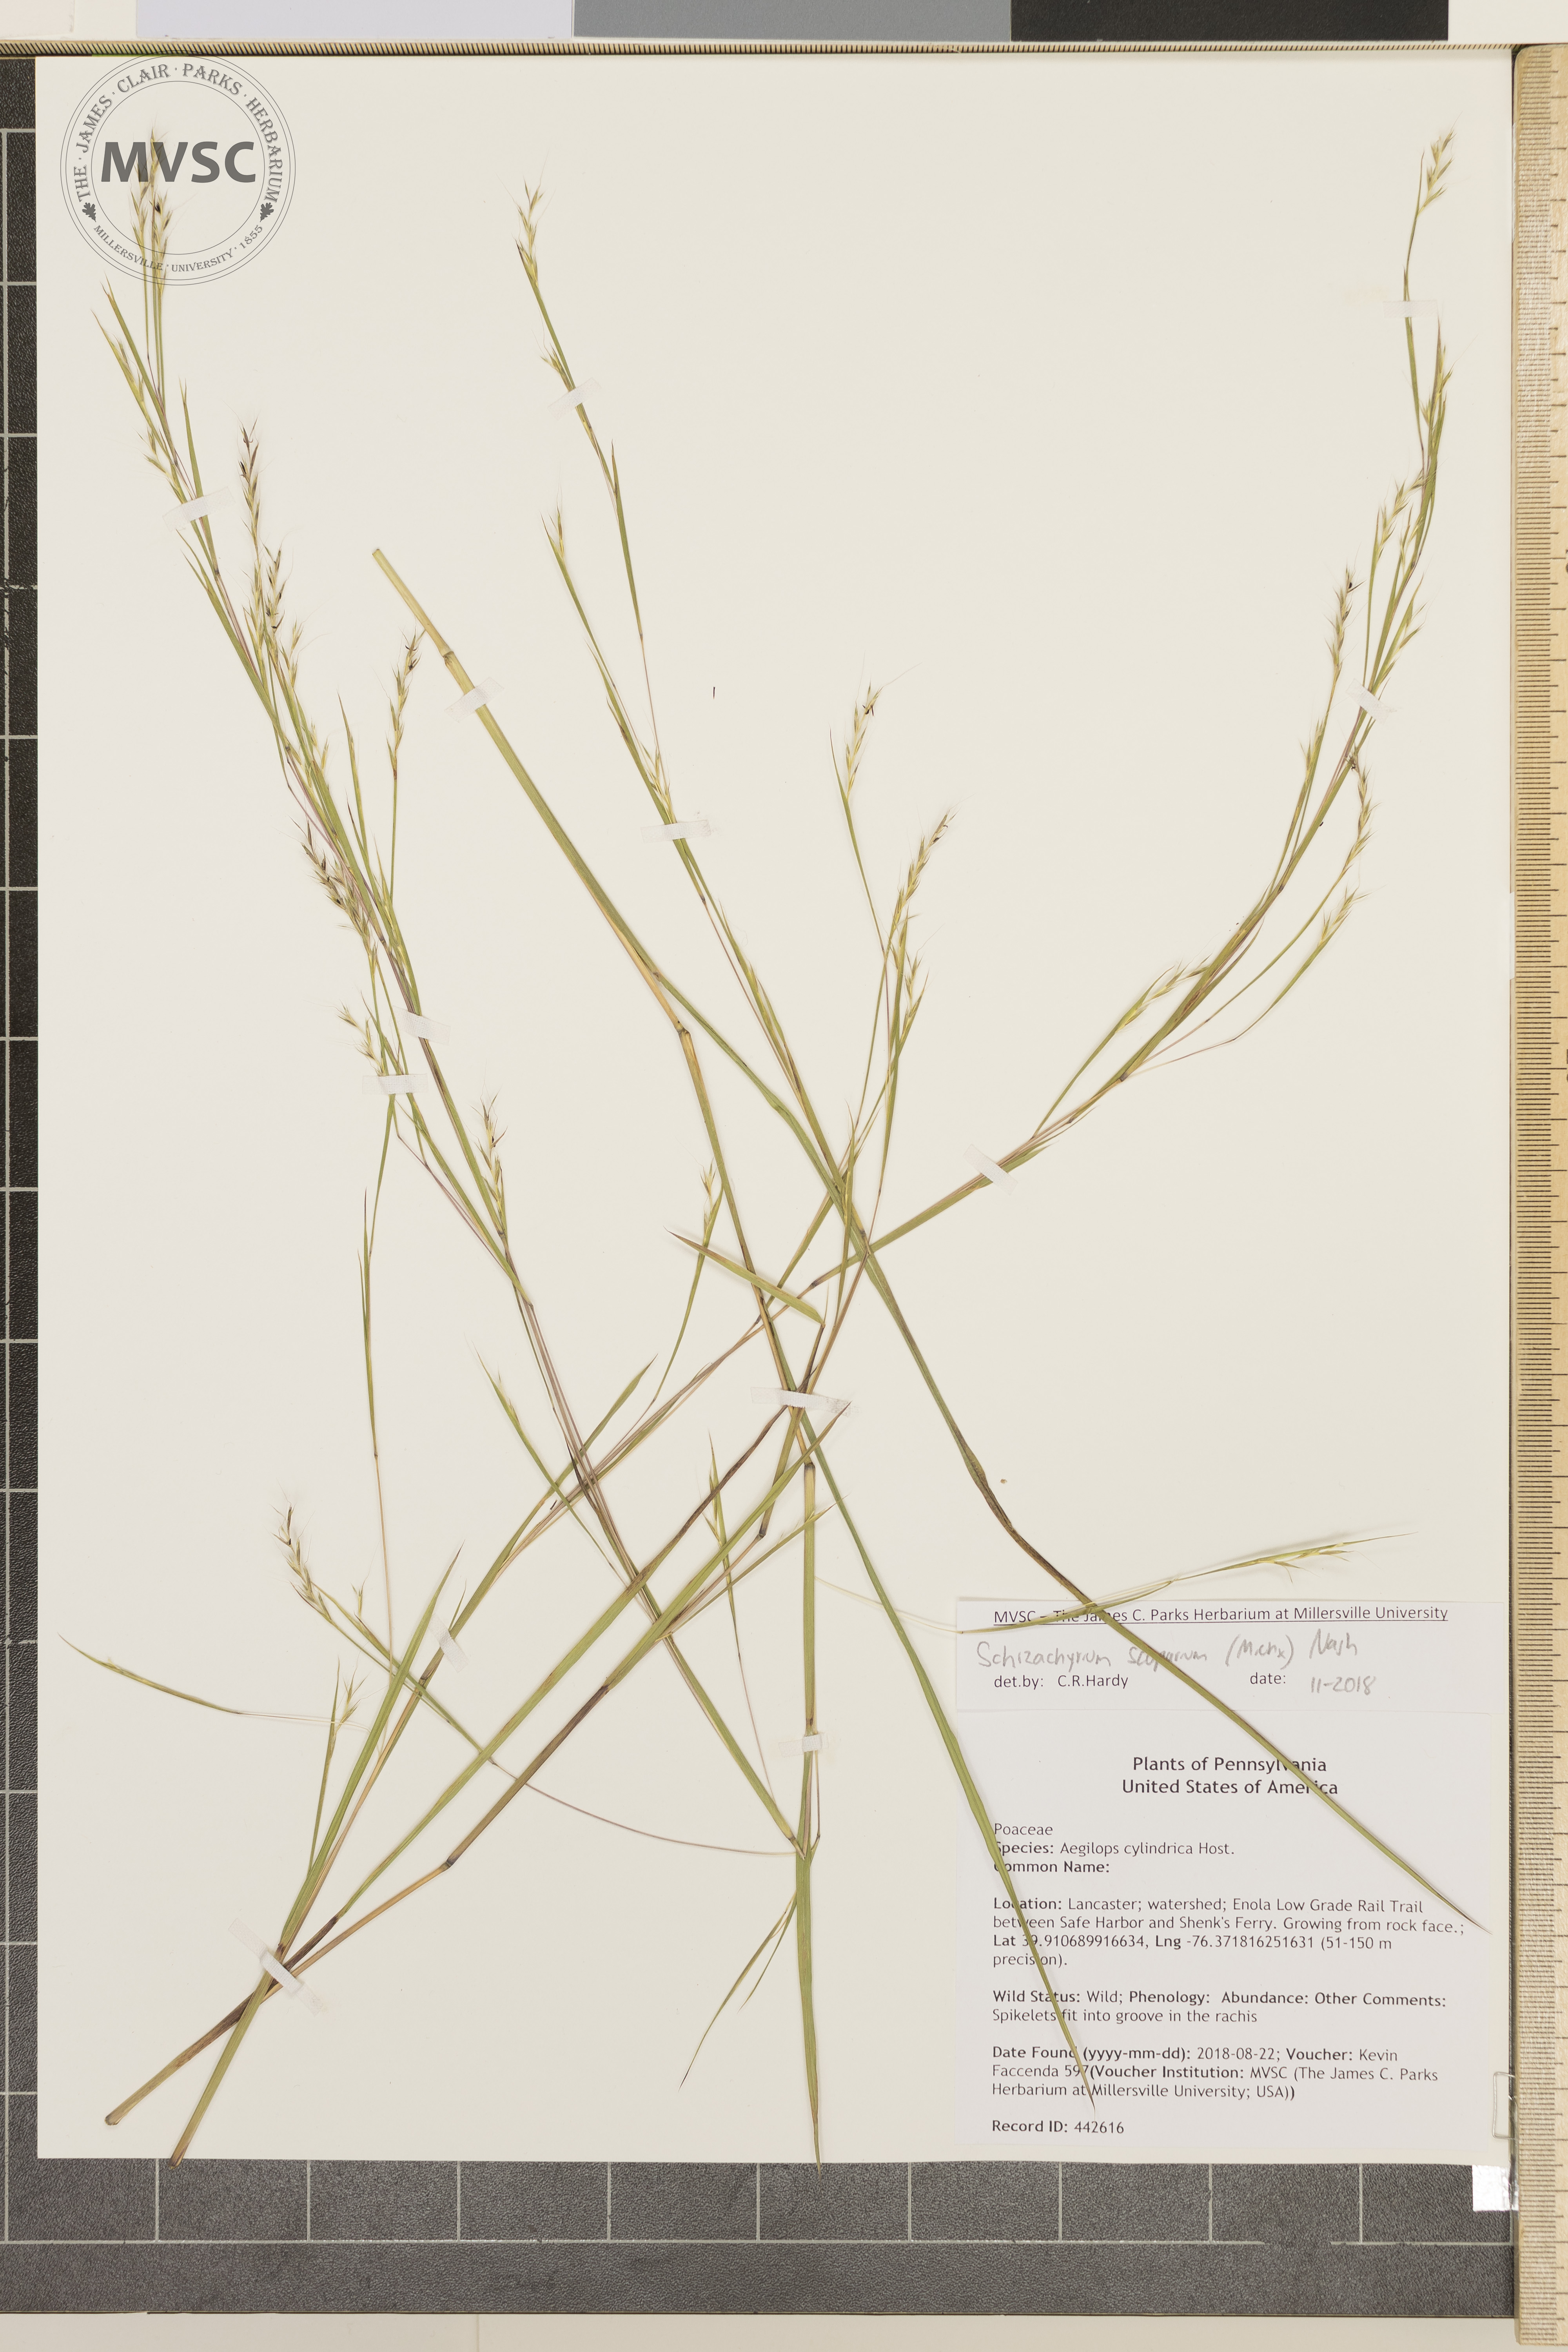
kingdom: Plantae
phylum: Tracheophyta
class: Liliopsida
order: Poales
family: Poaceae
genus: Schizachyrium
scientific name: Schizachyrium scoparium
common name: Little bluestem
